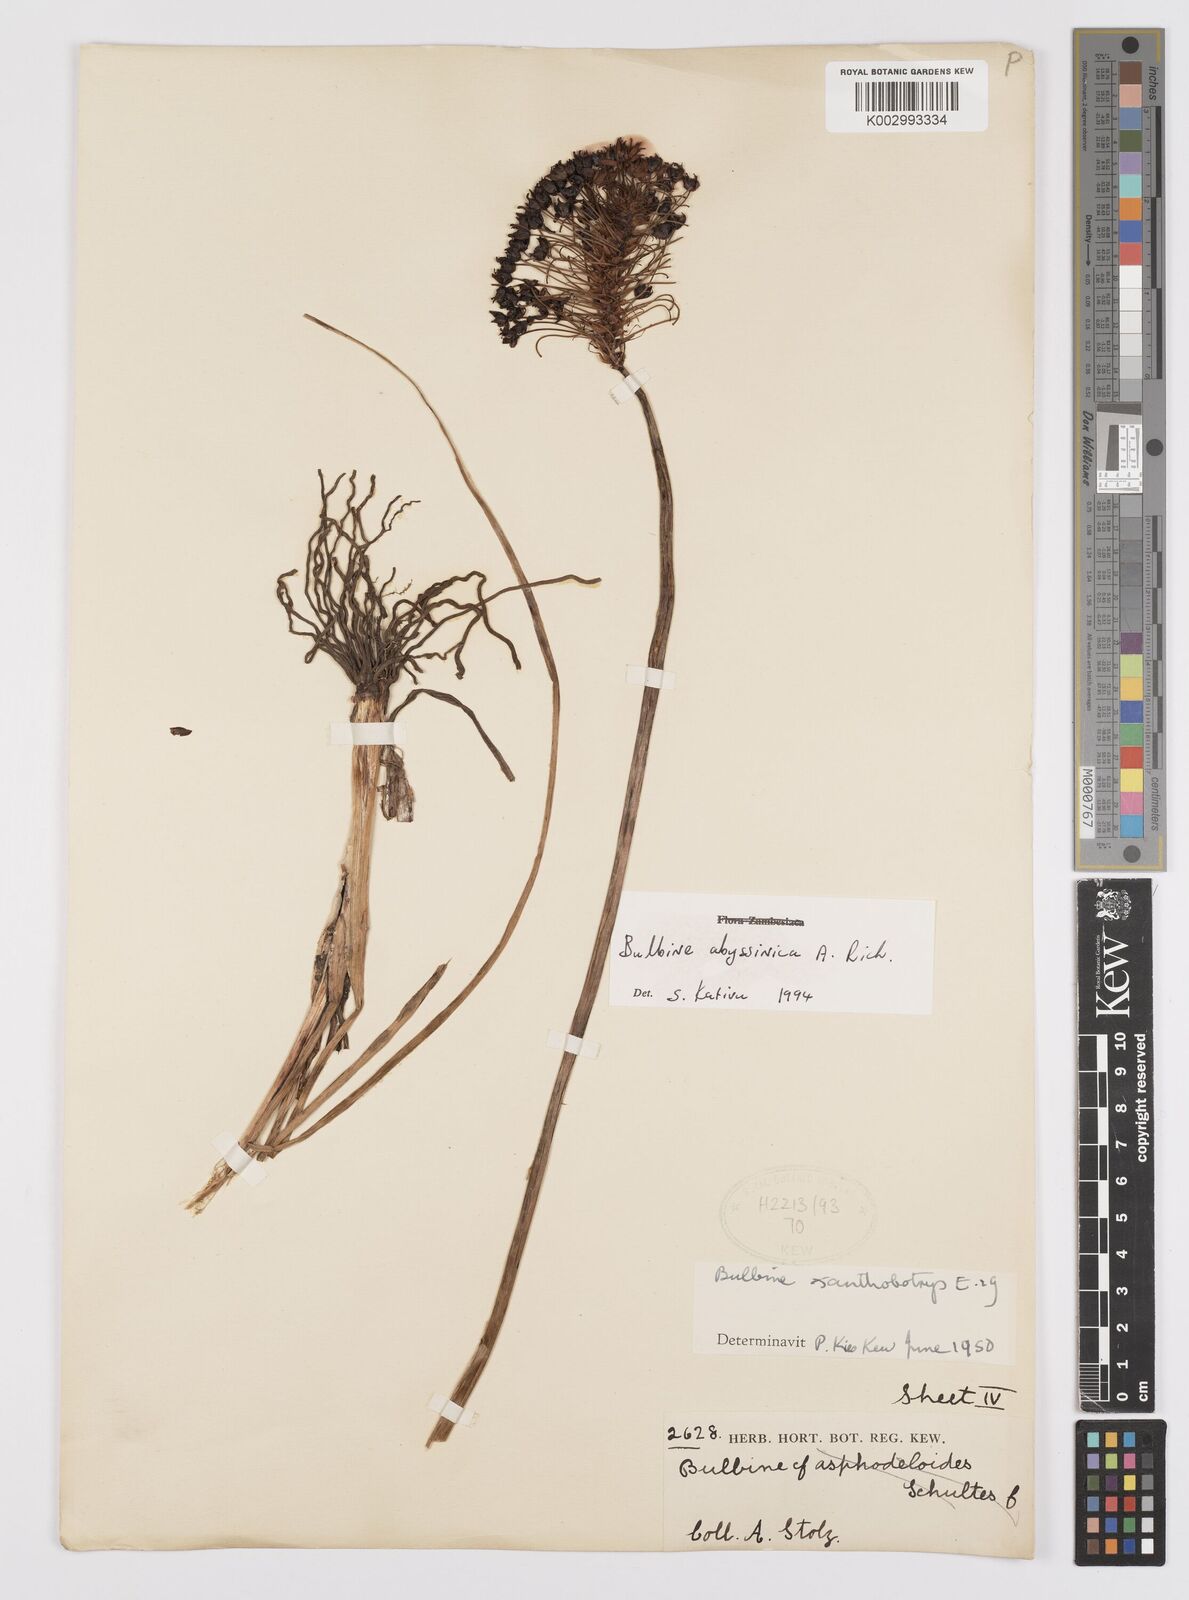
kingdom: Plantae
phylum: Tracheophyta
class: Liliopsida
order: Asparagales
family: Asphodelaceae
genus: Bulbine
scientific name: Bulbine abyssinica
